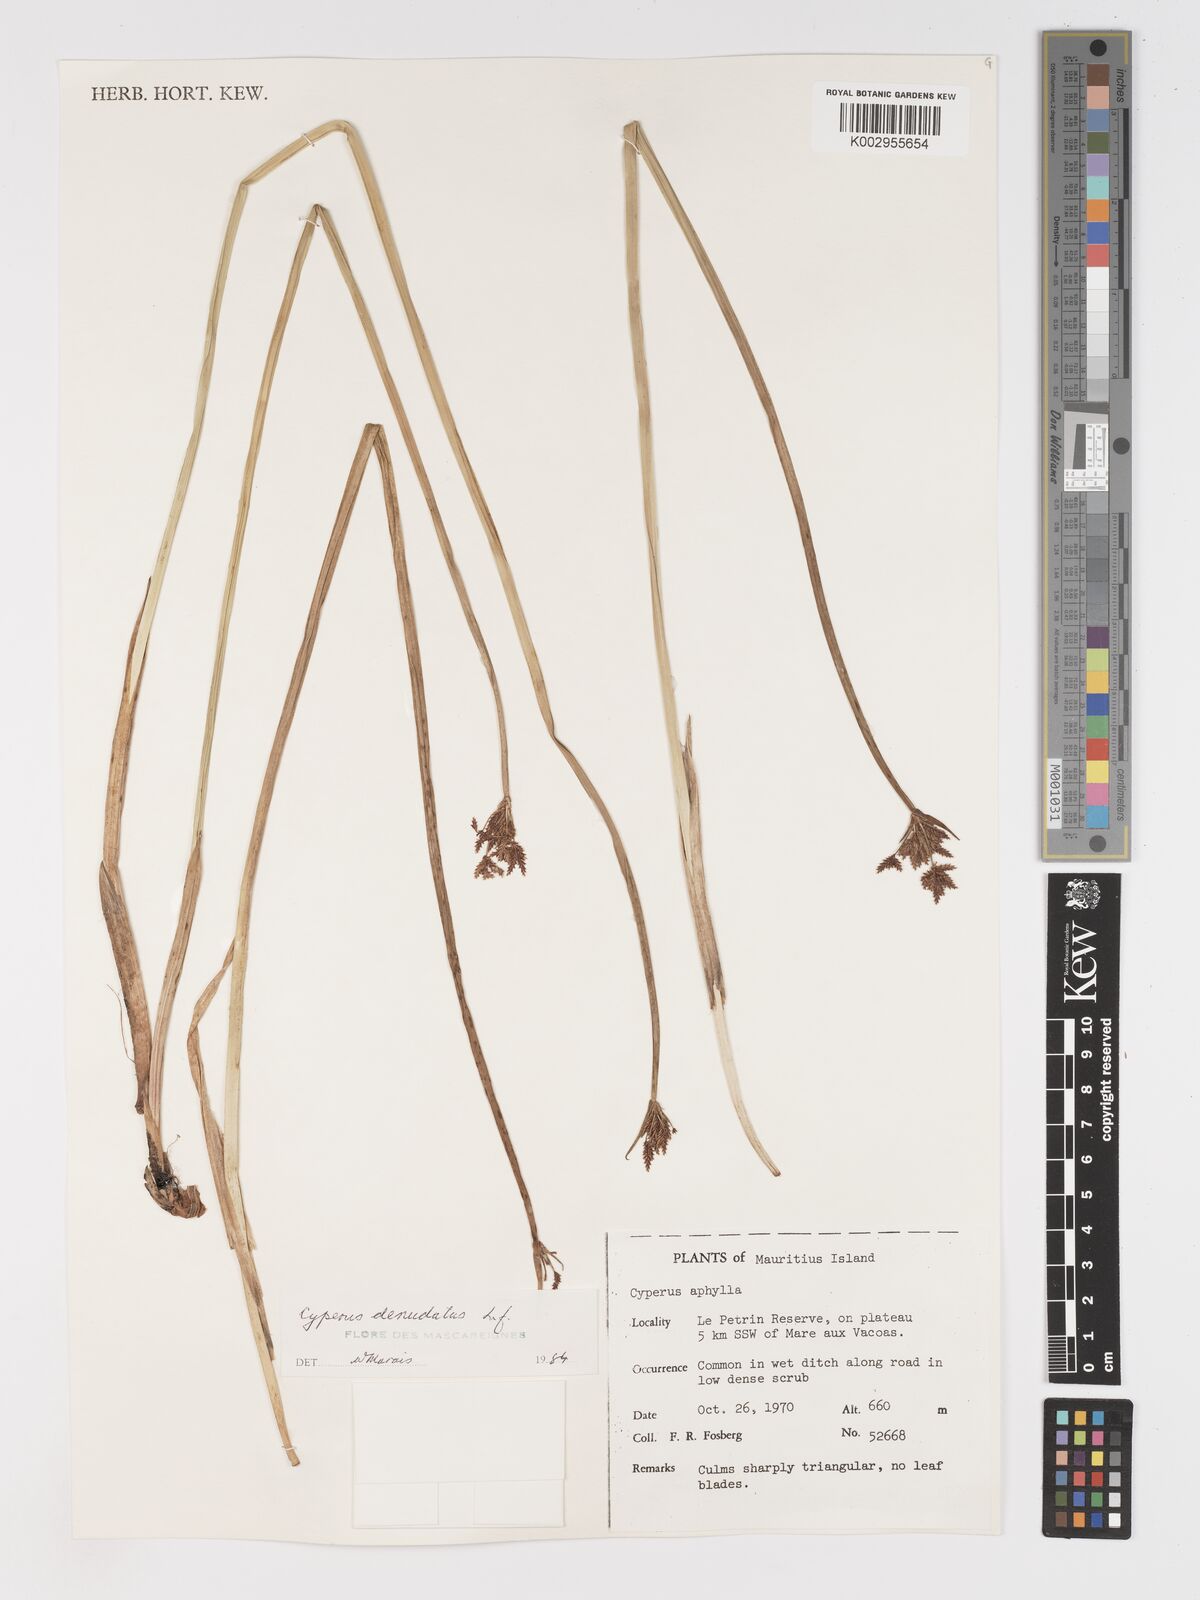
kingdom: Plantae
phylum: Tracheophyta
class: Liliopsida
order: Poales
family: Cyperaceae
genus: Cyperus
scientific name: Cyperus denudatus
